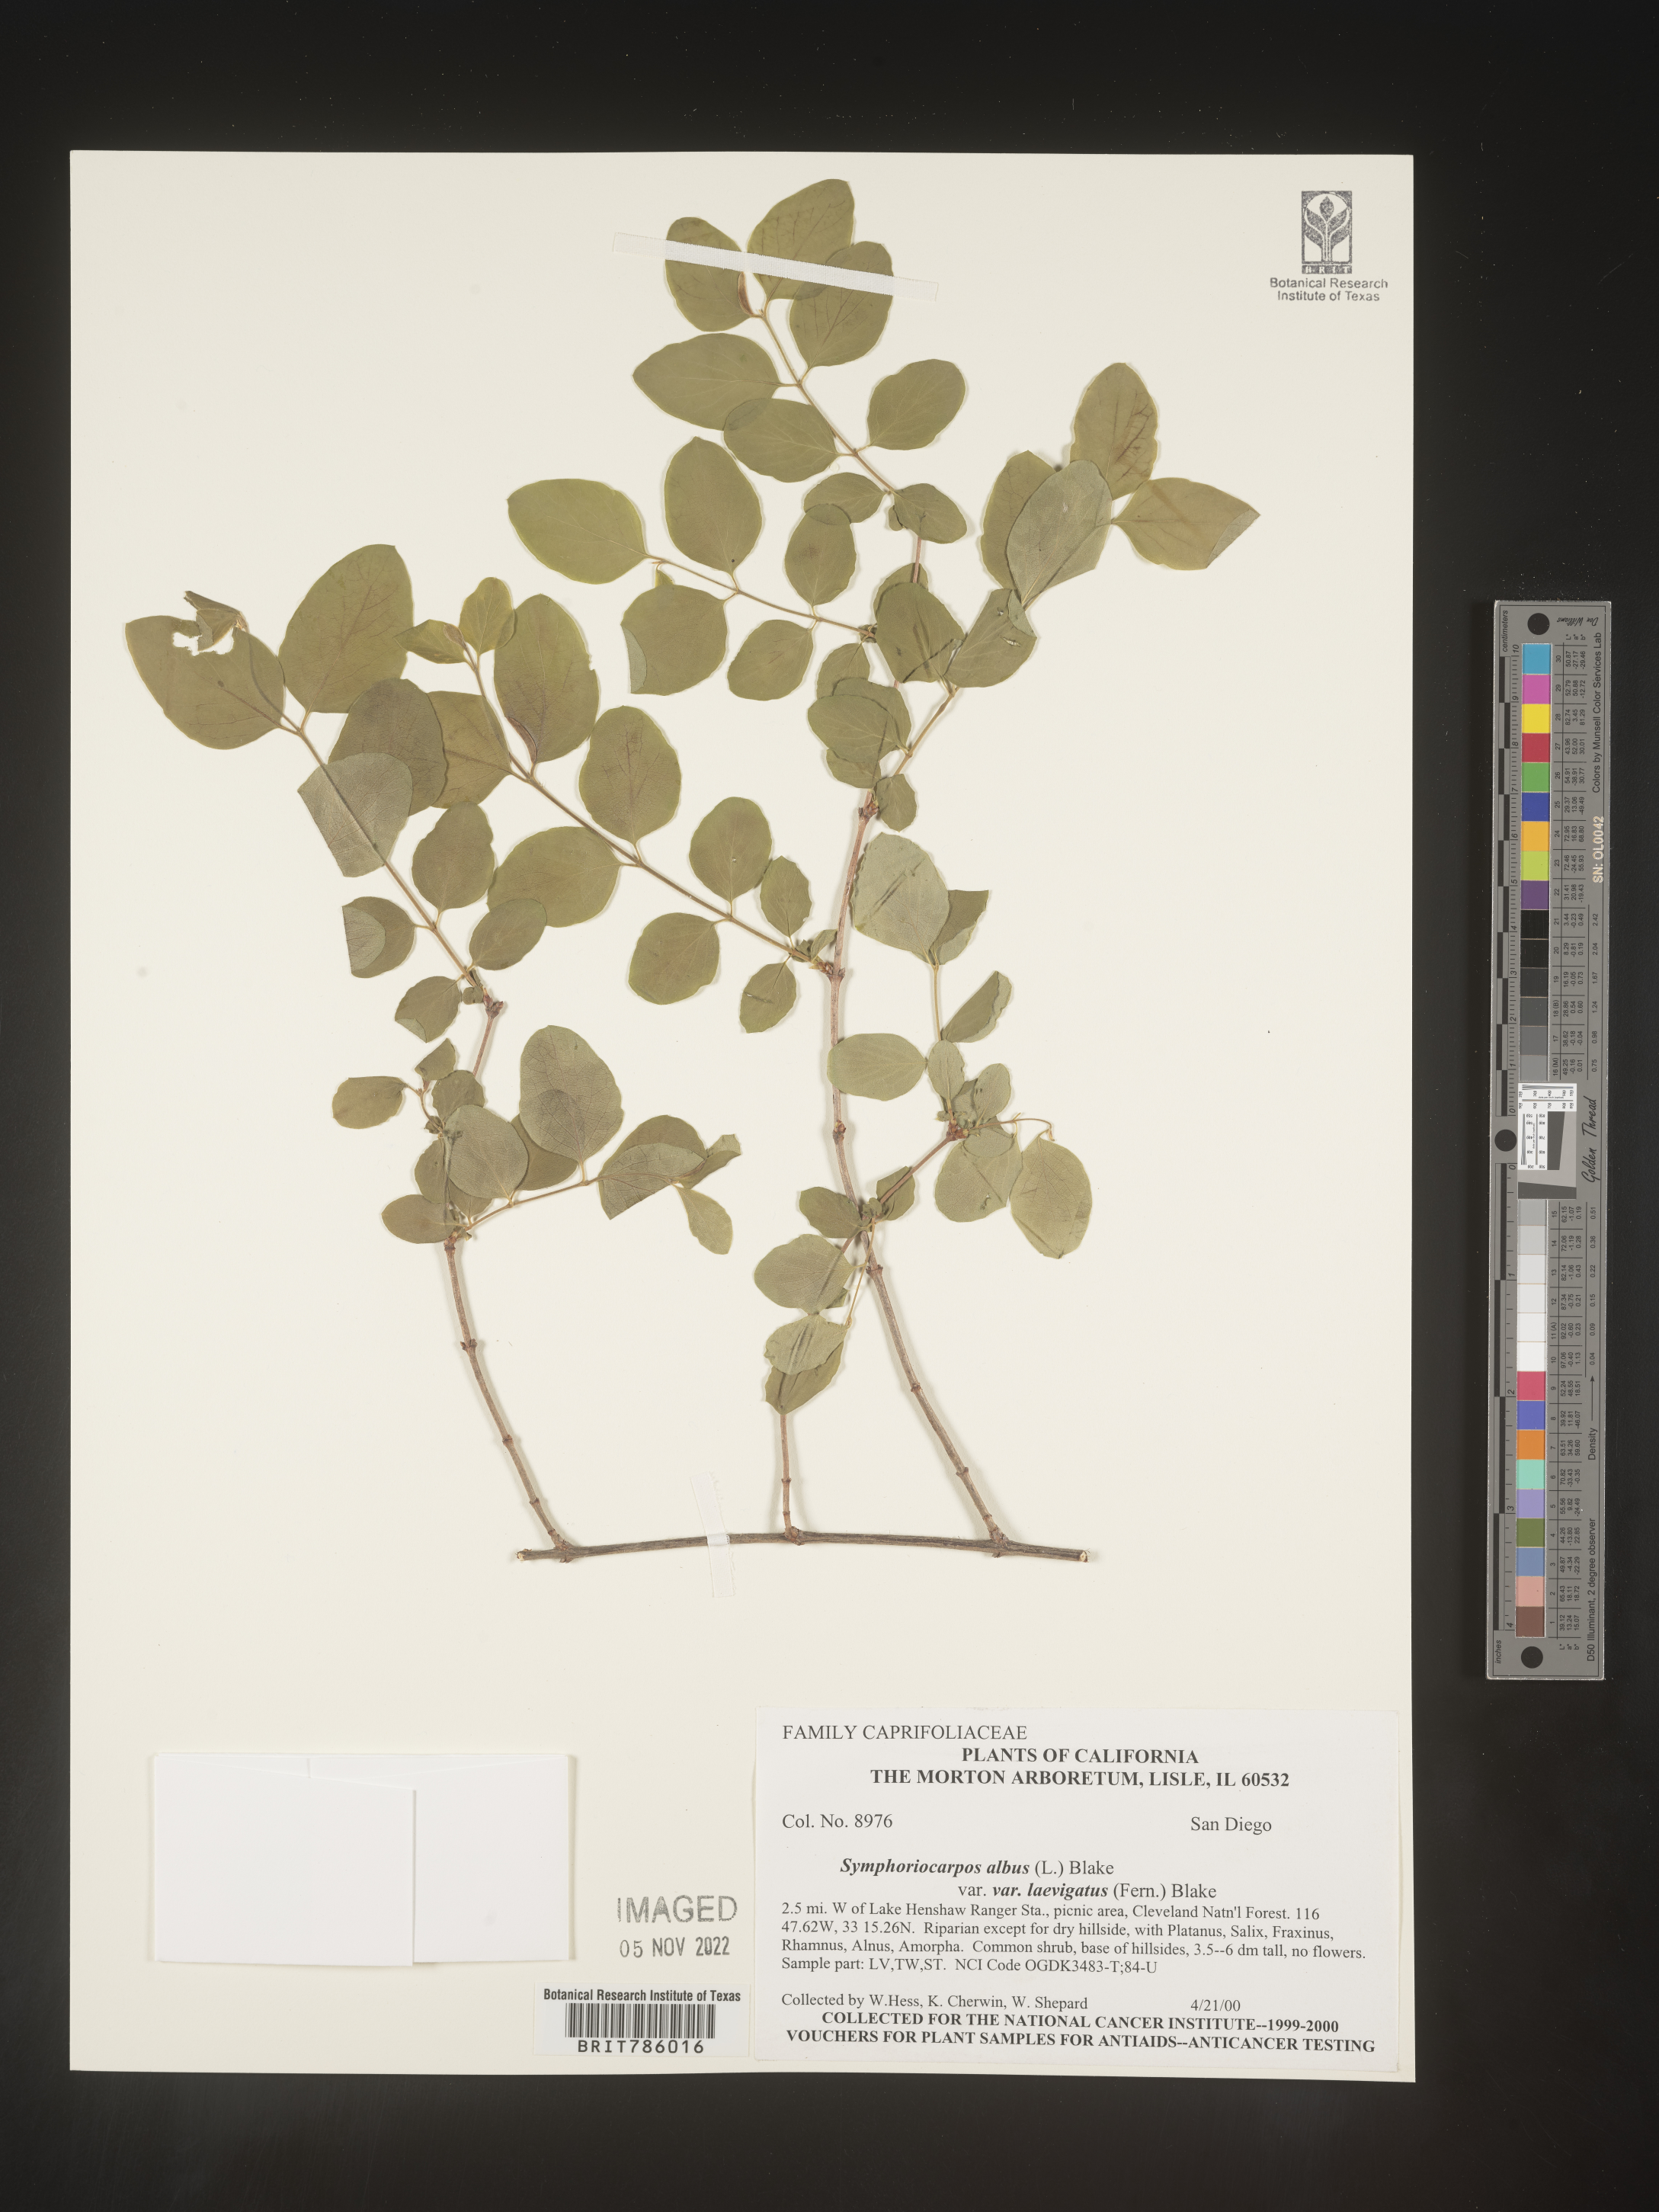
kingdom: Plantae
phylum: Tracheophyta
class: Magnoliopsida
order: Dipsacales
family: Caprifoliaceae
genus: Symphoricarpos
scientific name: Symphoricarpos albus
